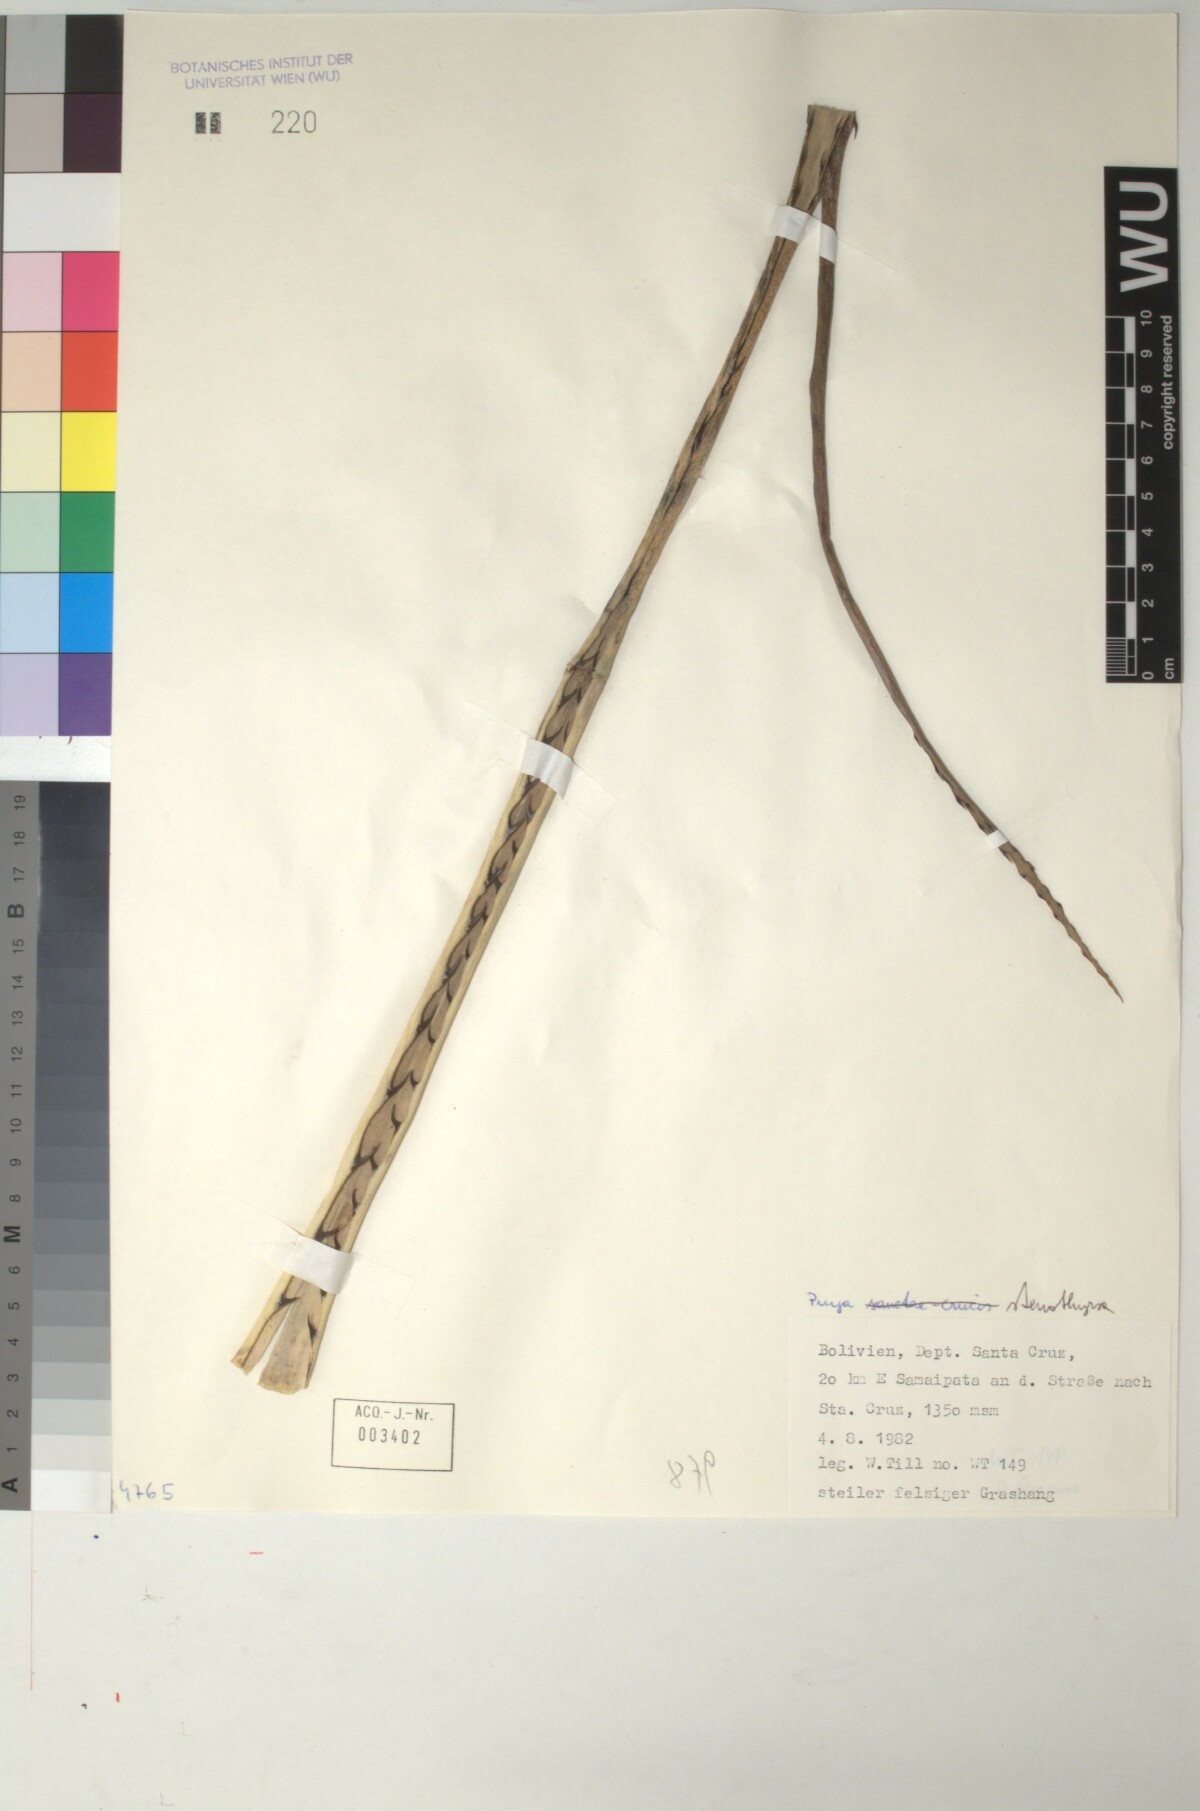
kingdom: Plantae
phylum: Tracheophyta
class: Liliopsida
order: Poales
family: Bromeliaceae
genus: Puya
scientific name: Puya stenothyrsa
